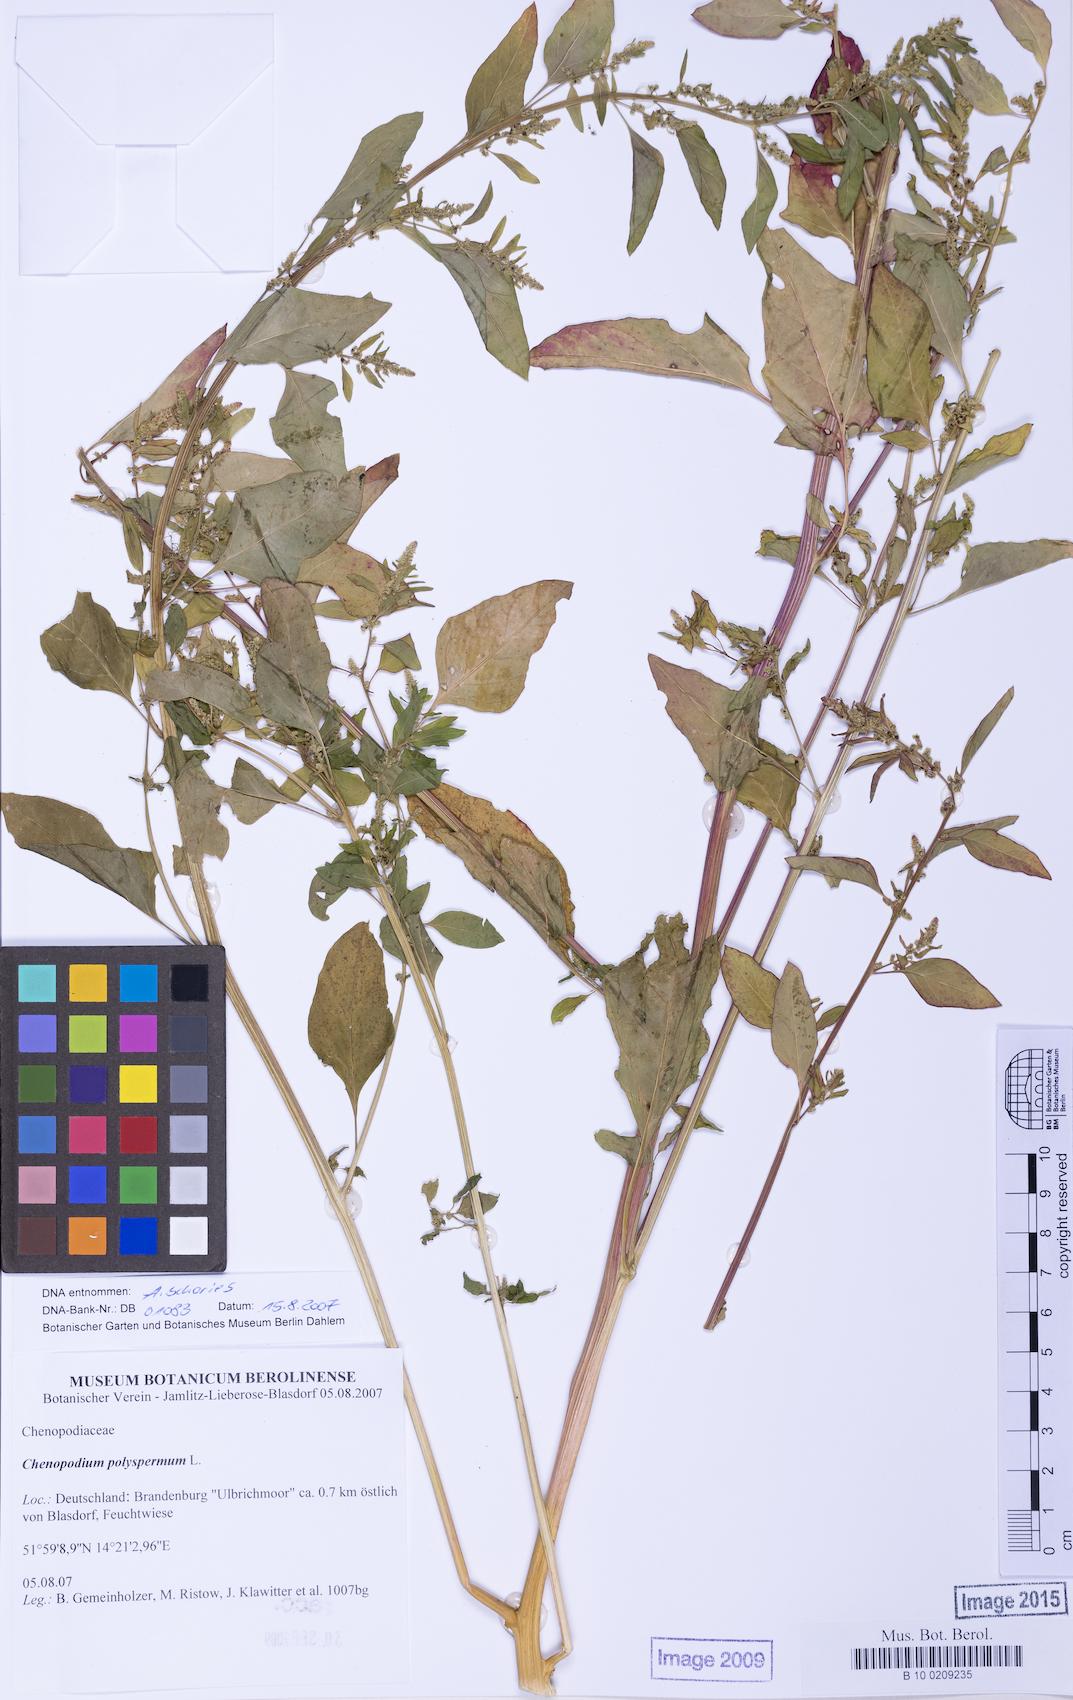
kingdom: Plantae
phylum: Tracheophyta
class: Magnoliopsida
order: Caryophyllales
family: Amaranthaceae
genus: Lipandra
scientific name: Lipandra polysperma
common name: Many-seed goosefoot
